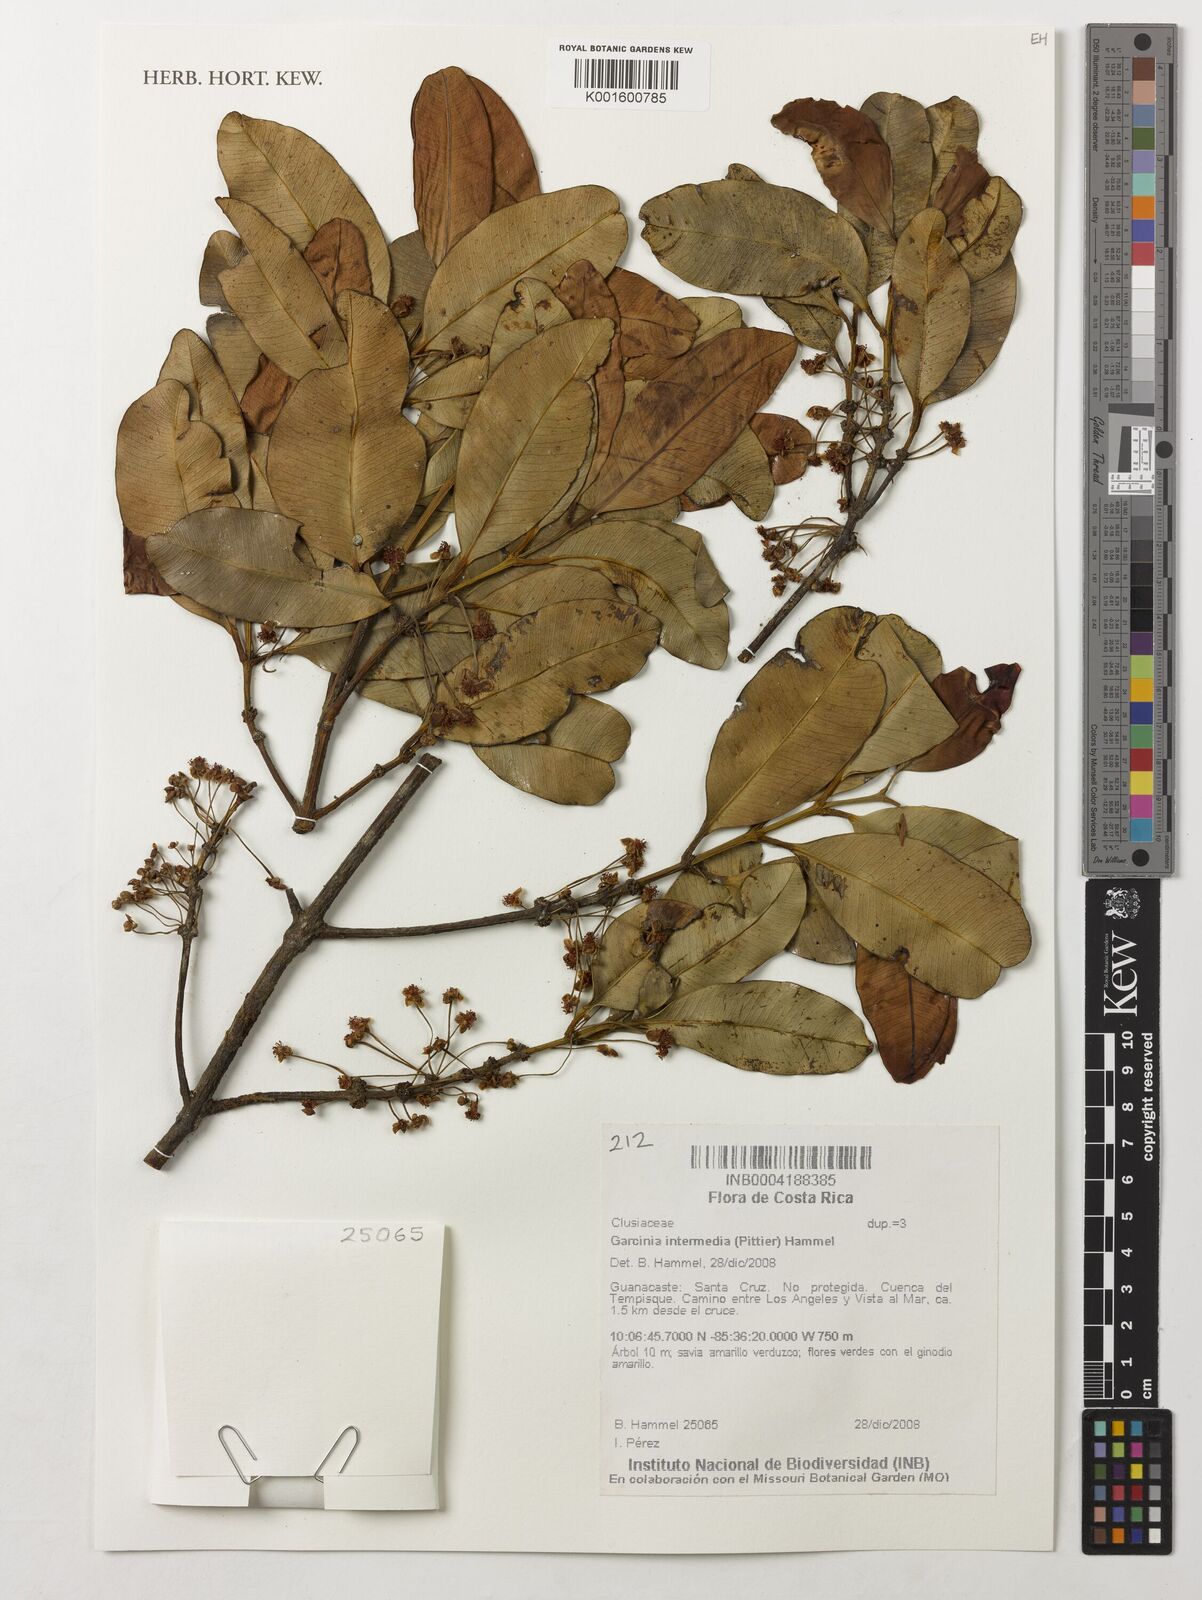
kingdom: Plantae
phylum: Tracheophyta
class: Magnoliopsida
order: Malpighiales
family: Clusiaceae
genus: Garcinia
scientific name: Garcinia intermedia
